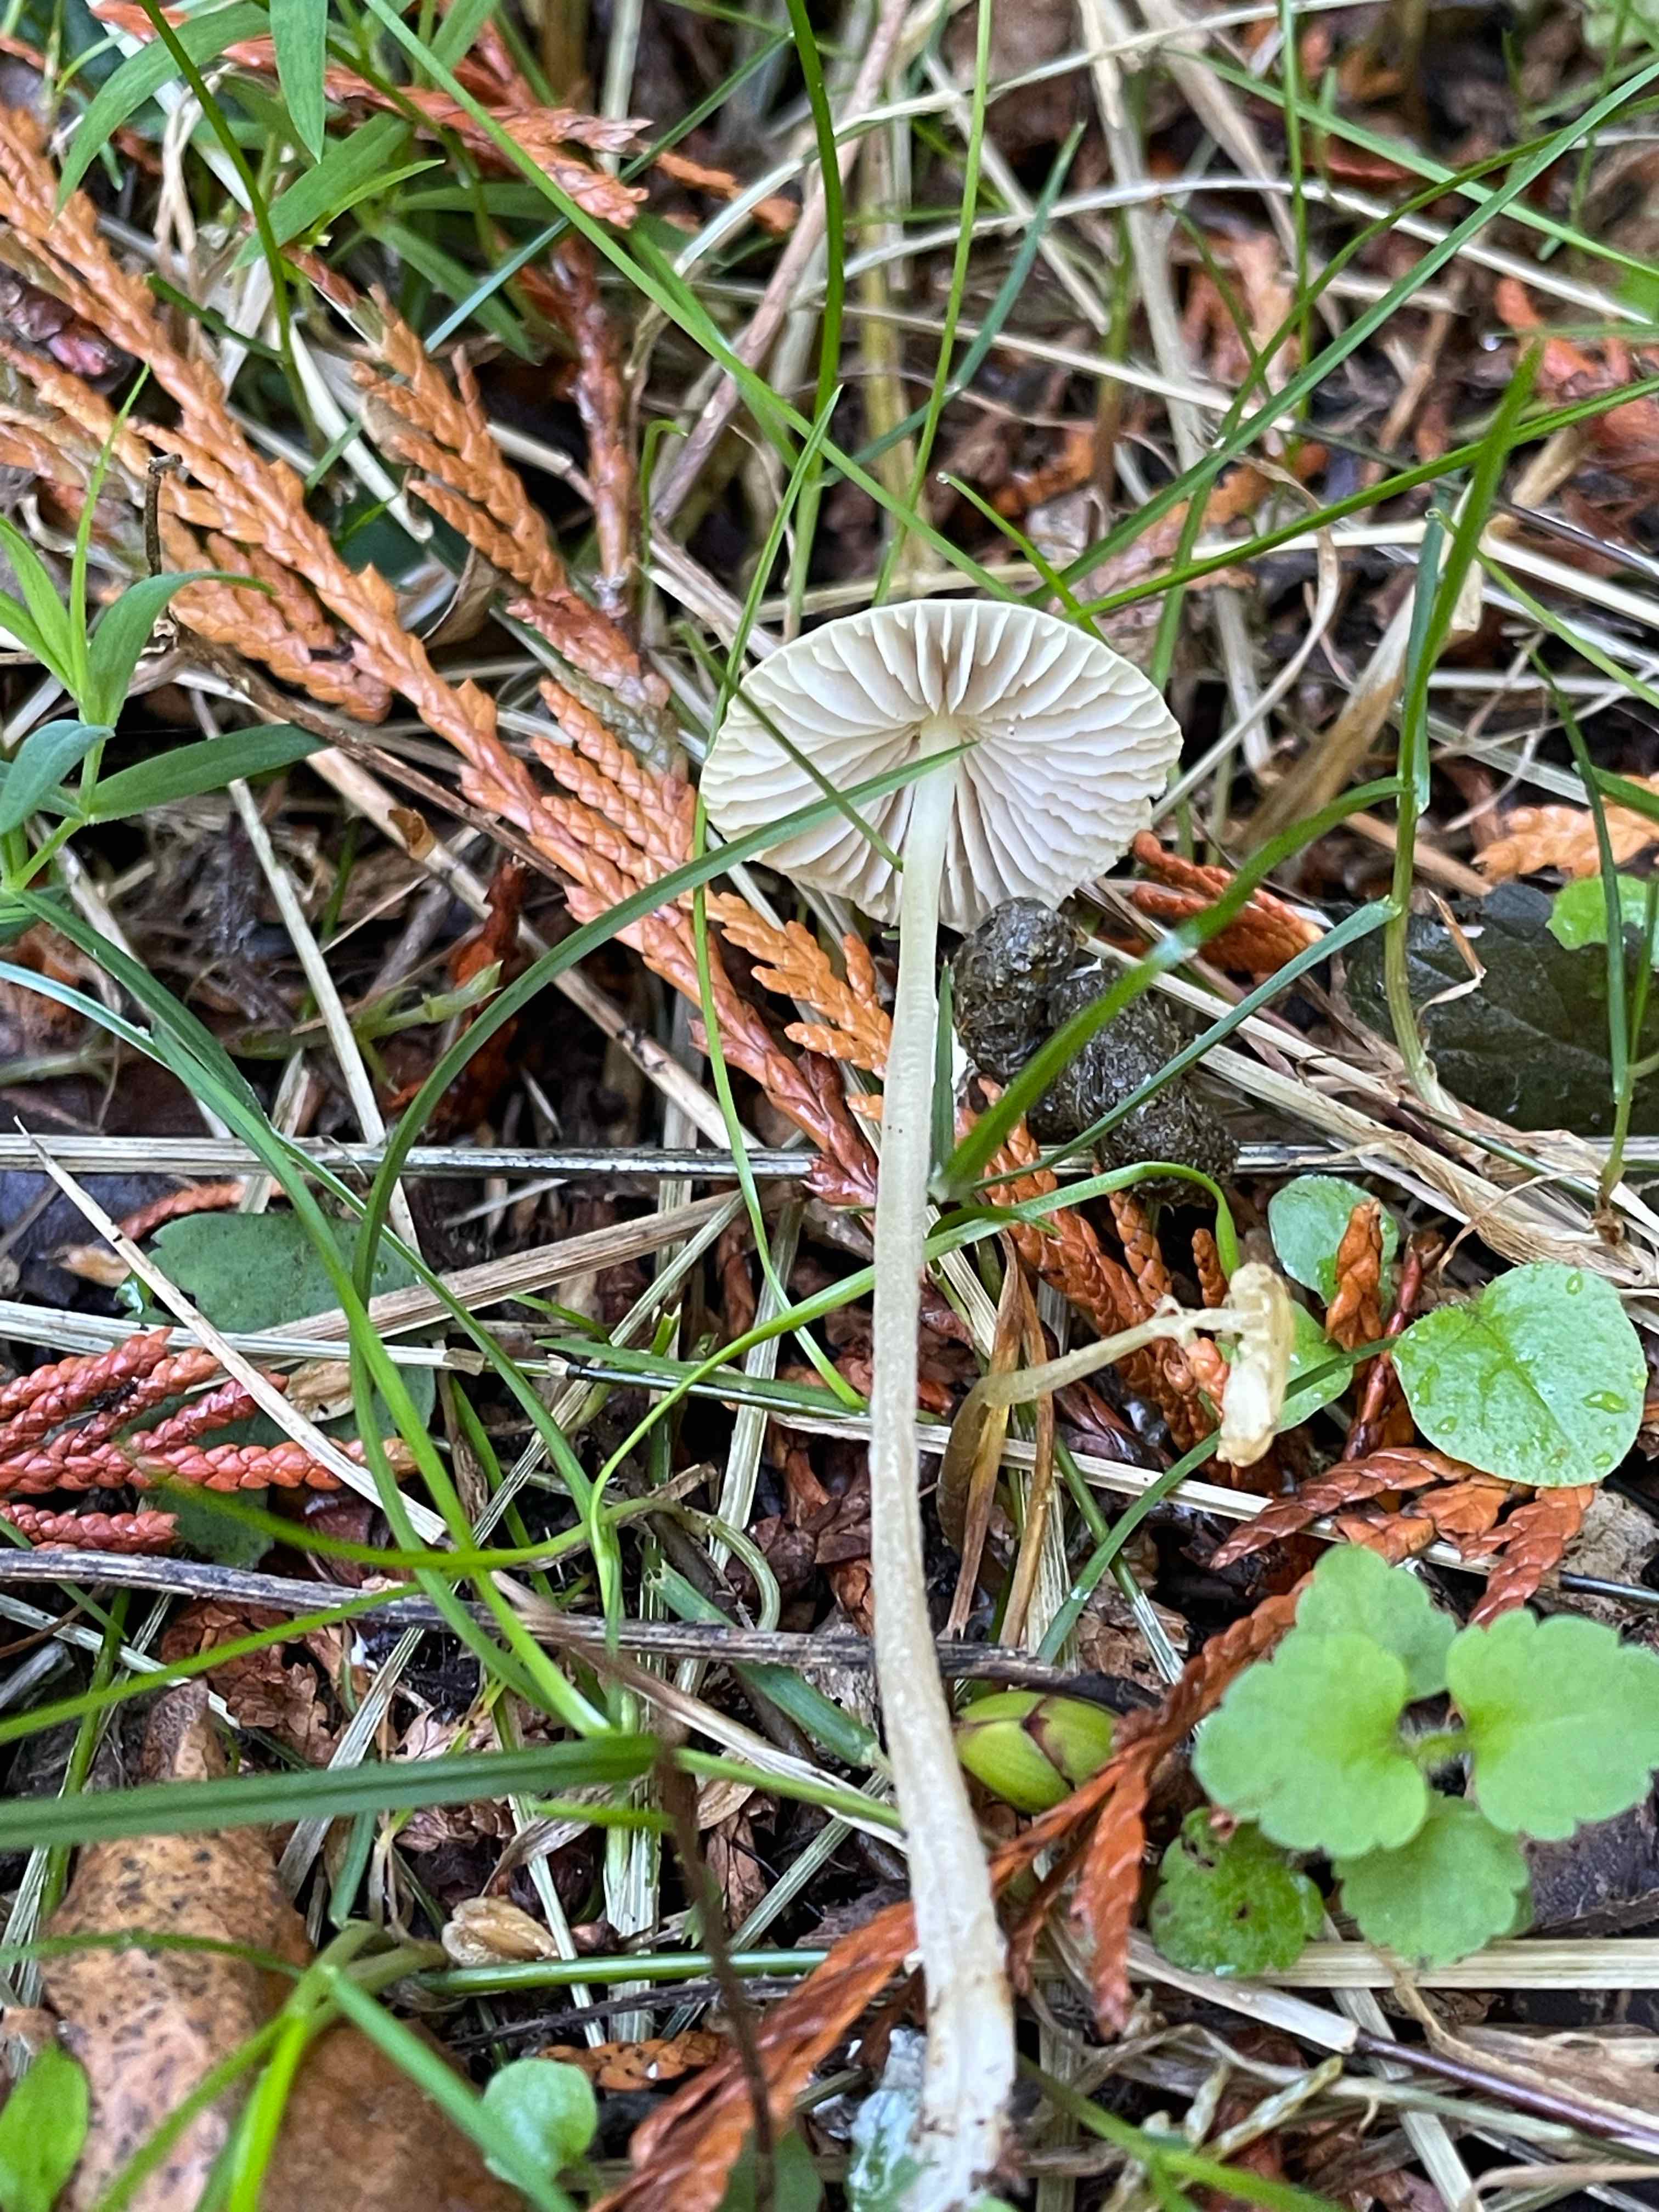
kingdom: Fungi
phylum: Basidiomycota
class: Agaricomycetes
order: Agaricales
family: Bolbitiaceae
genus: Bolbitius
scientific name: Bolbitius titubans
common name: almindelig gulhat
